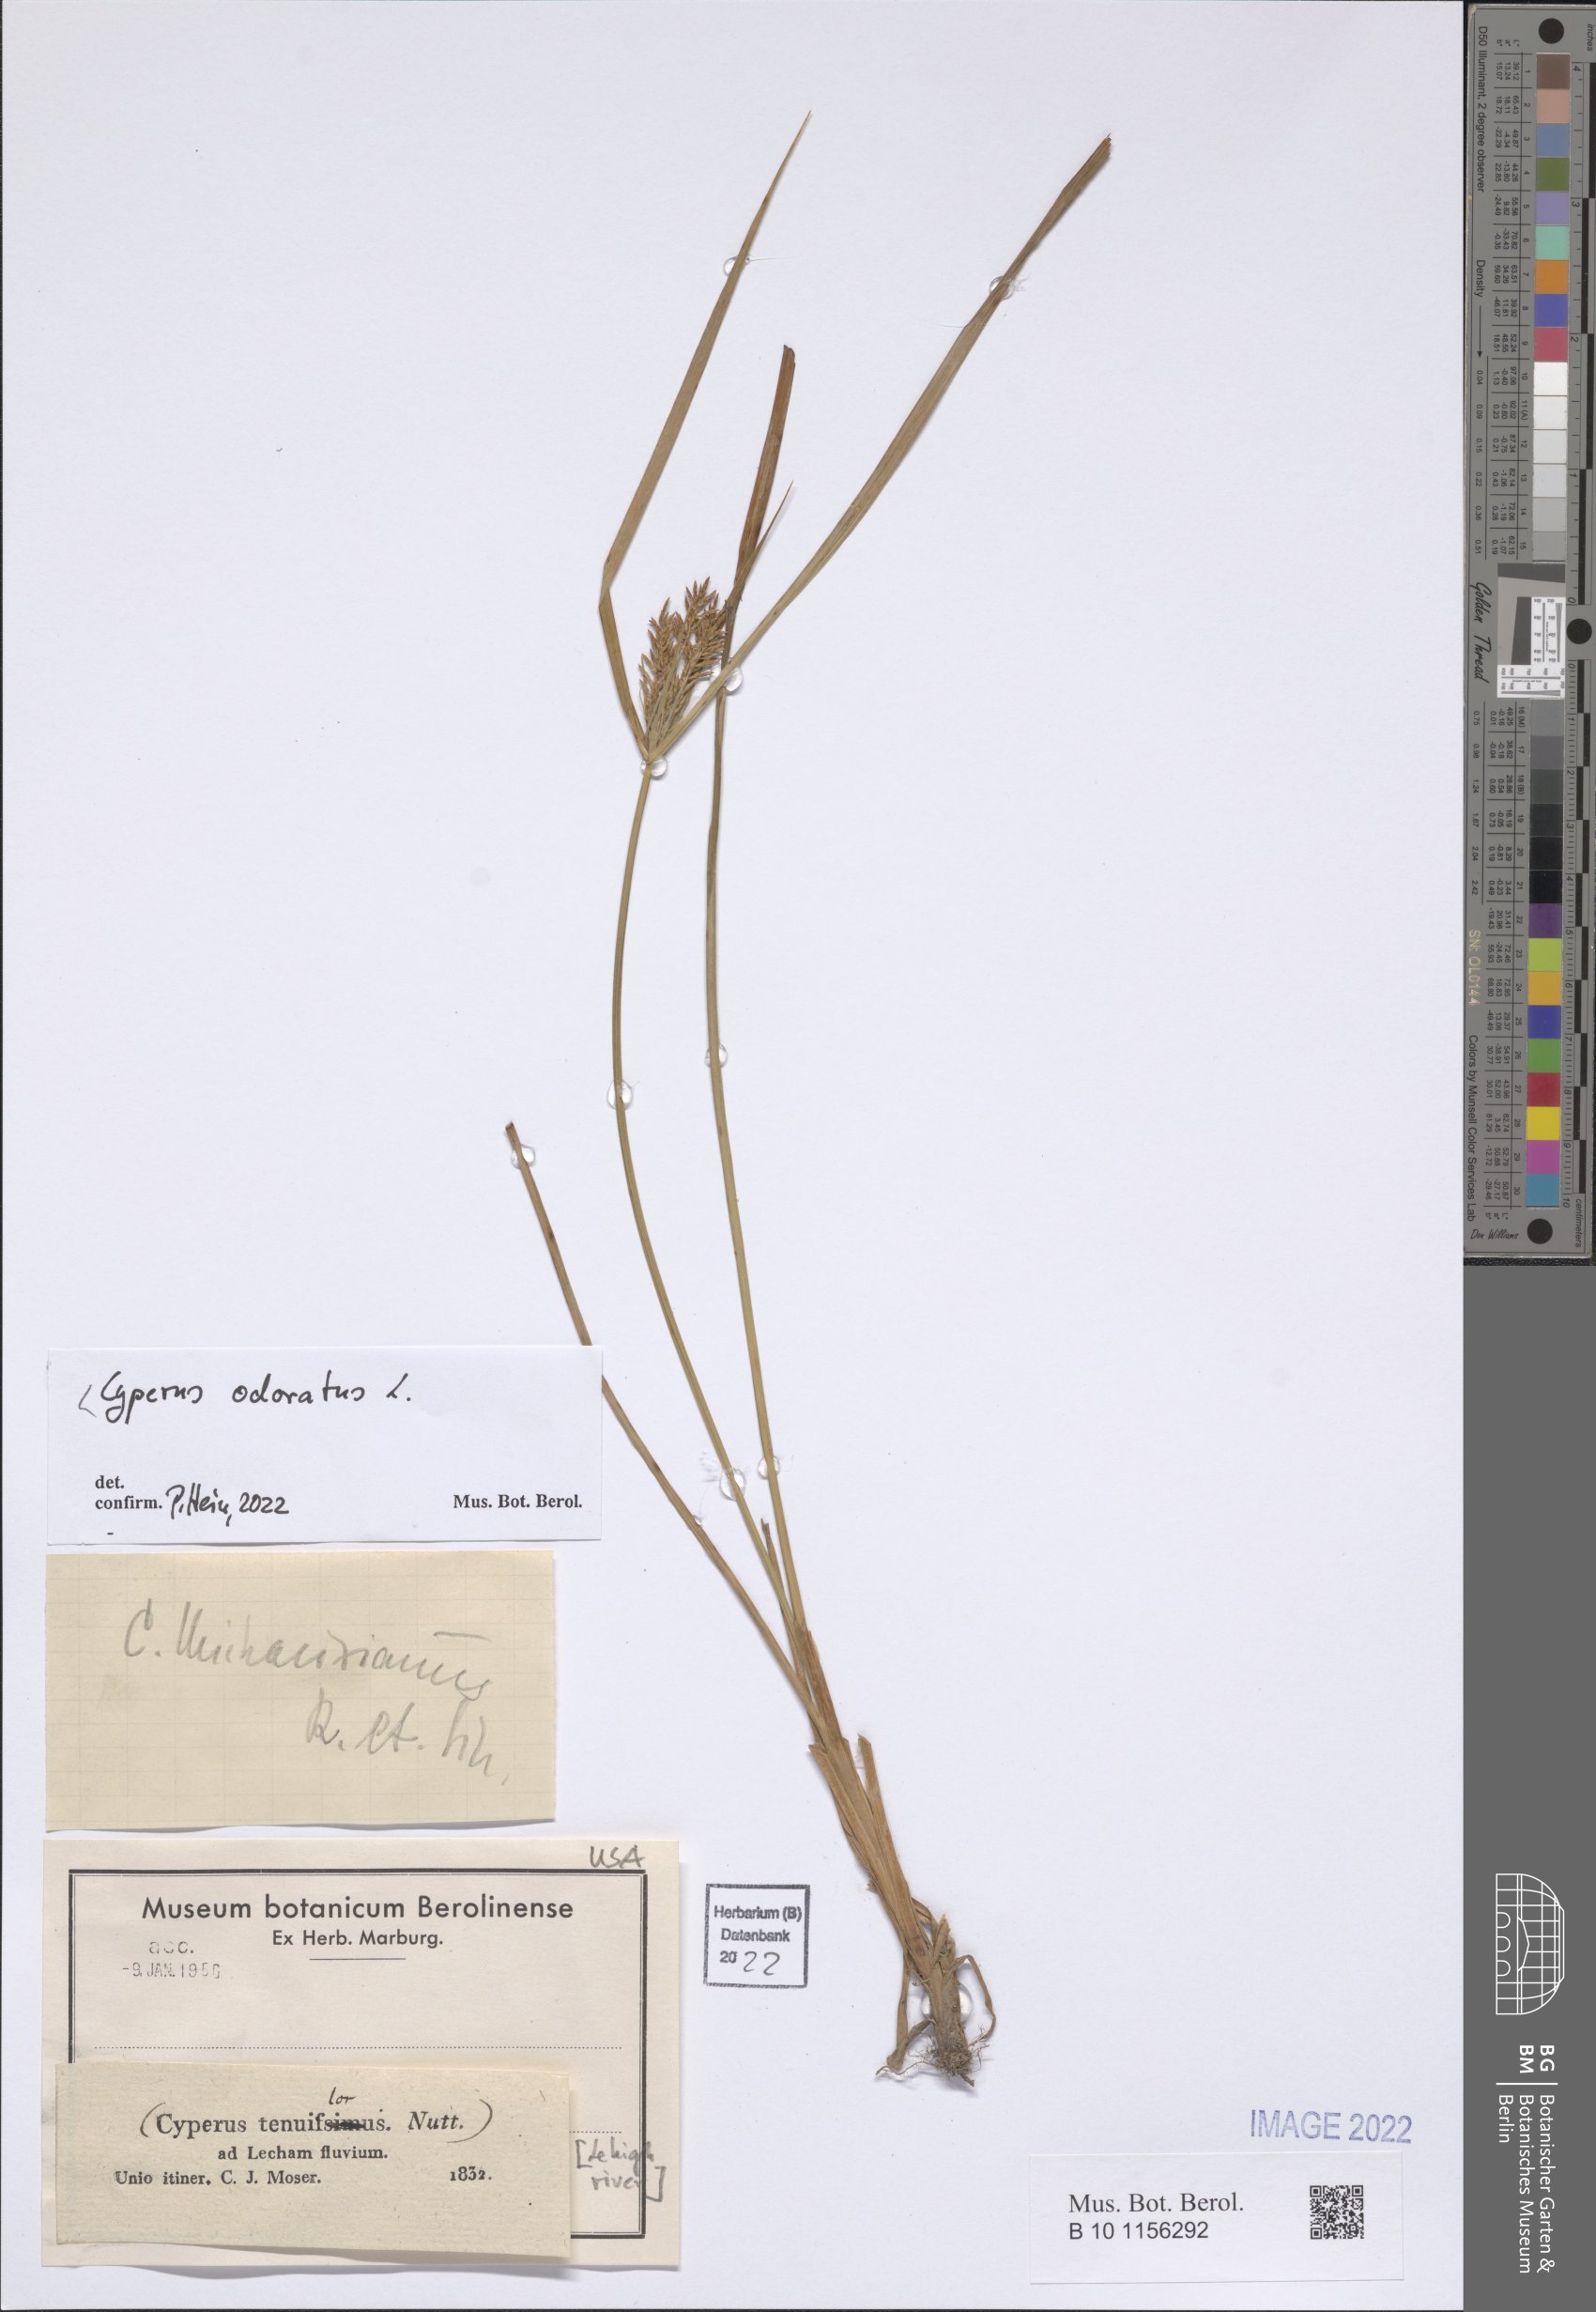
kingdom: Plantae
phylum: Tracheophyta
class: Liliopsida
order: Poales
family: Cyperaceae
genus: Cyperus
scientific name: Cyperus odoratus
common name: Fragrant flatsedge
